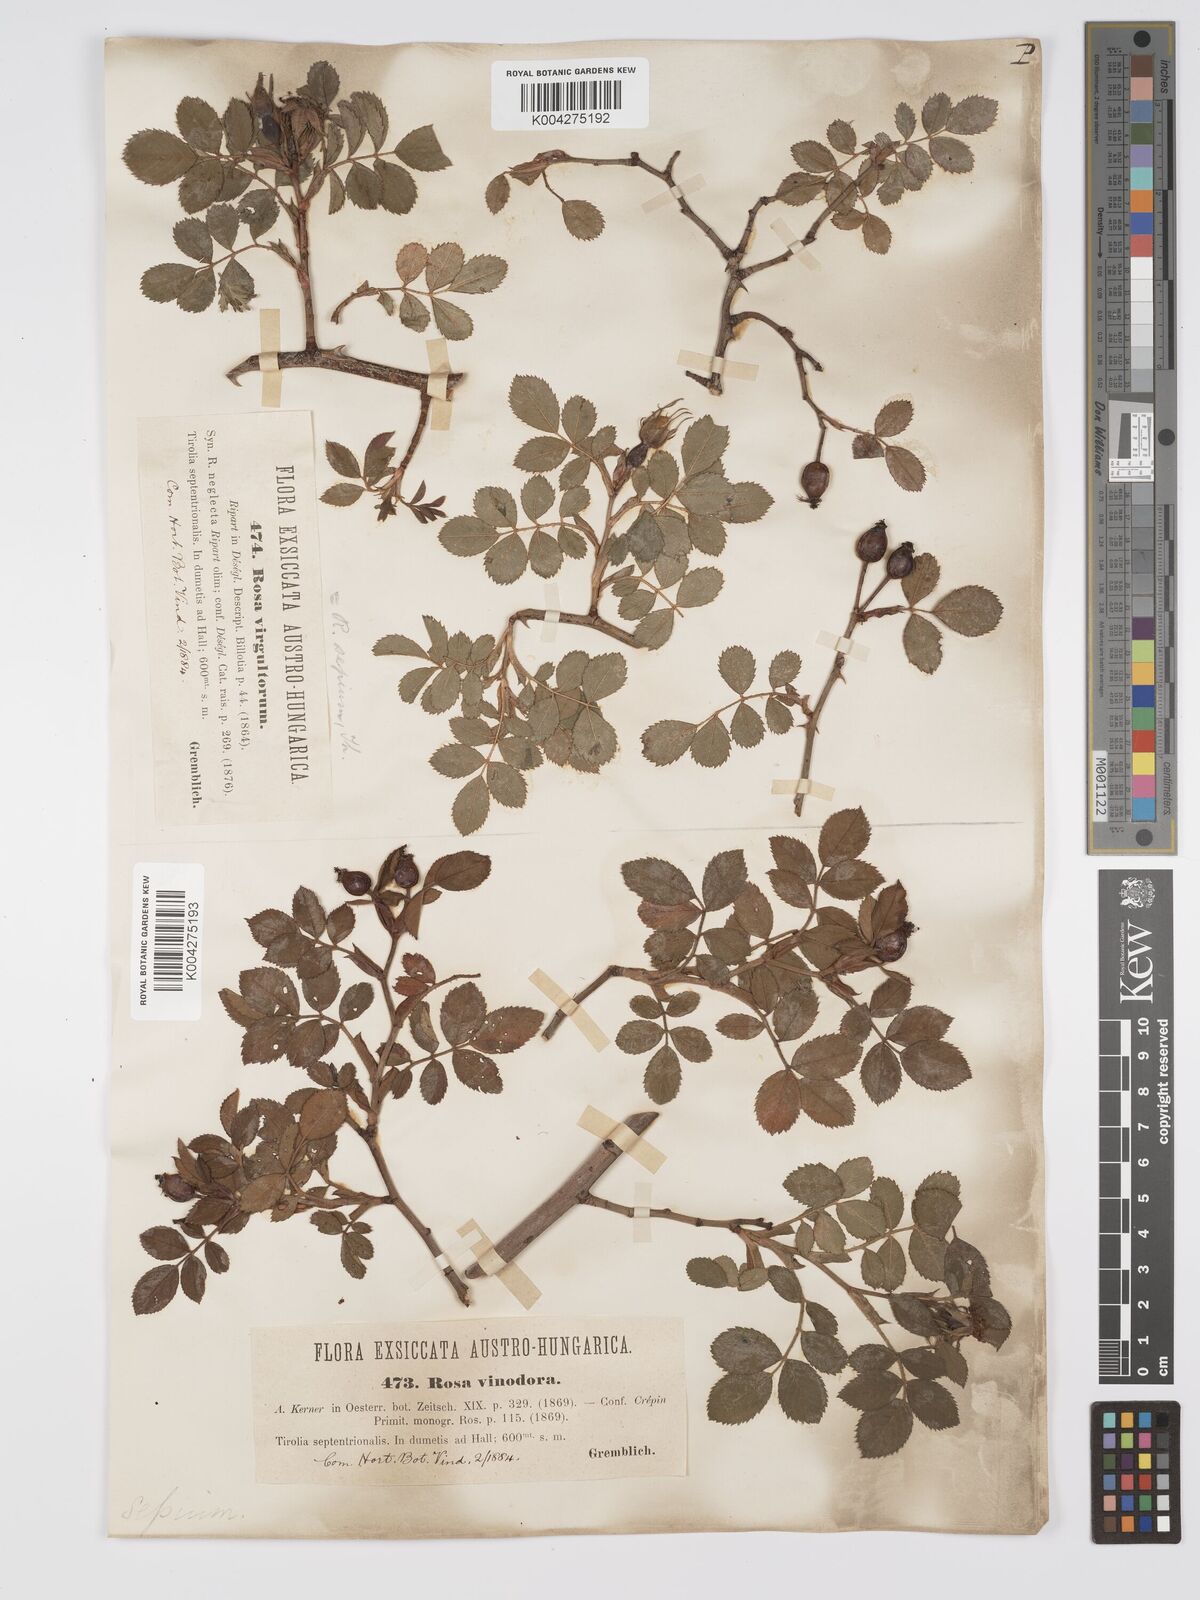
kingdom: Plantae
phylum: Tracheophyta
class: Magnoliopsida
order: Rosales
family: Rosaceae
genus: Rosa
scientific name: Rosa
